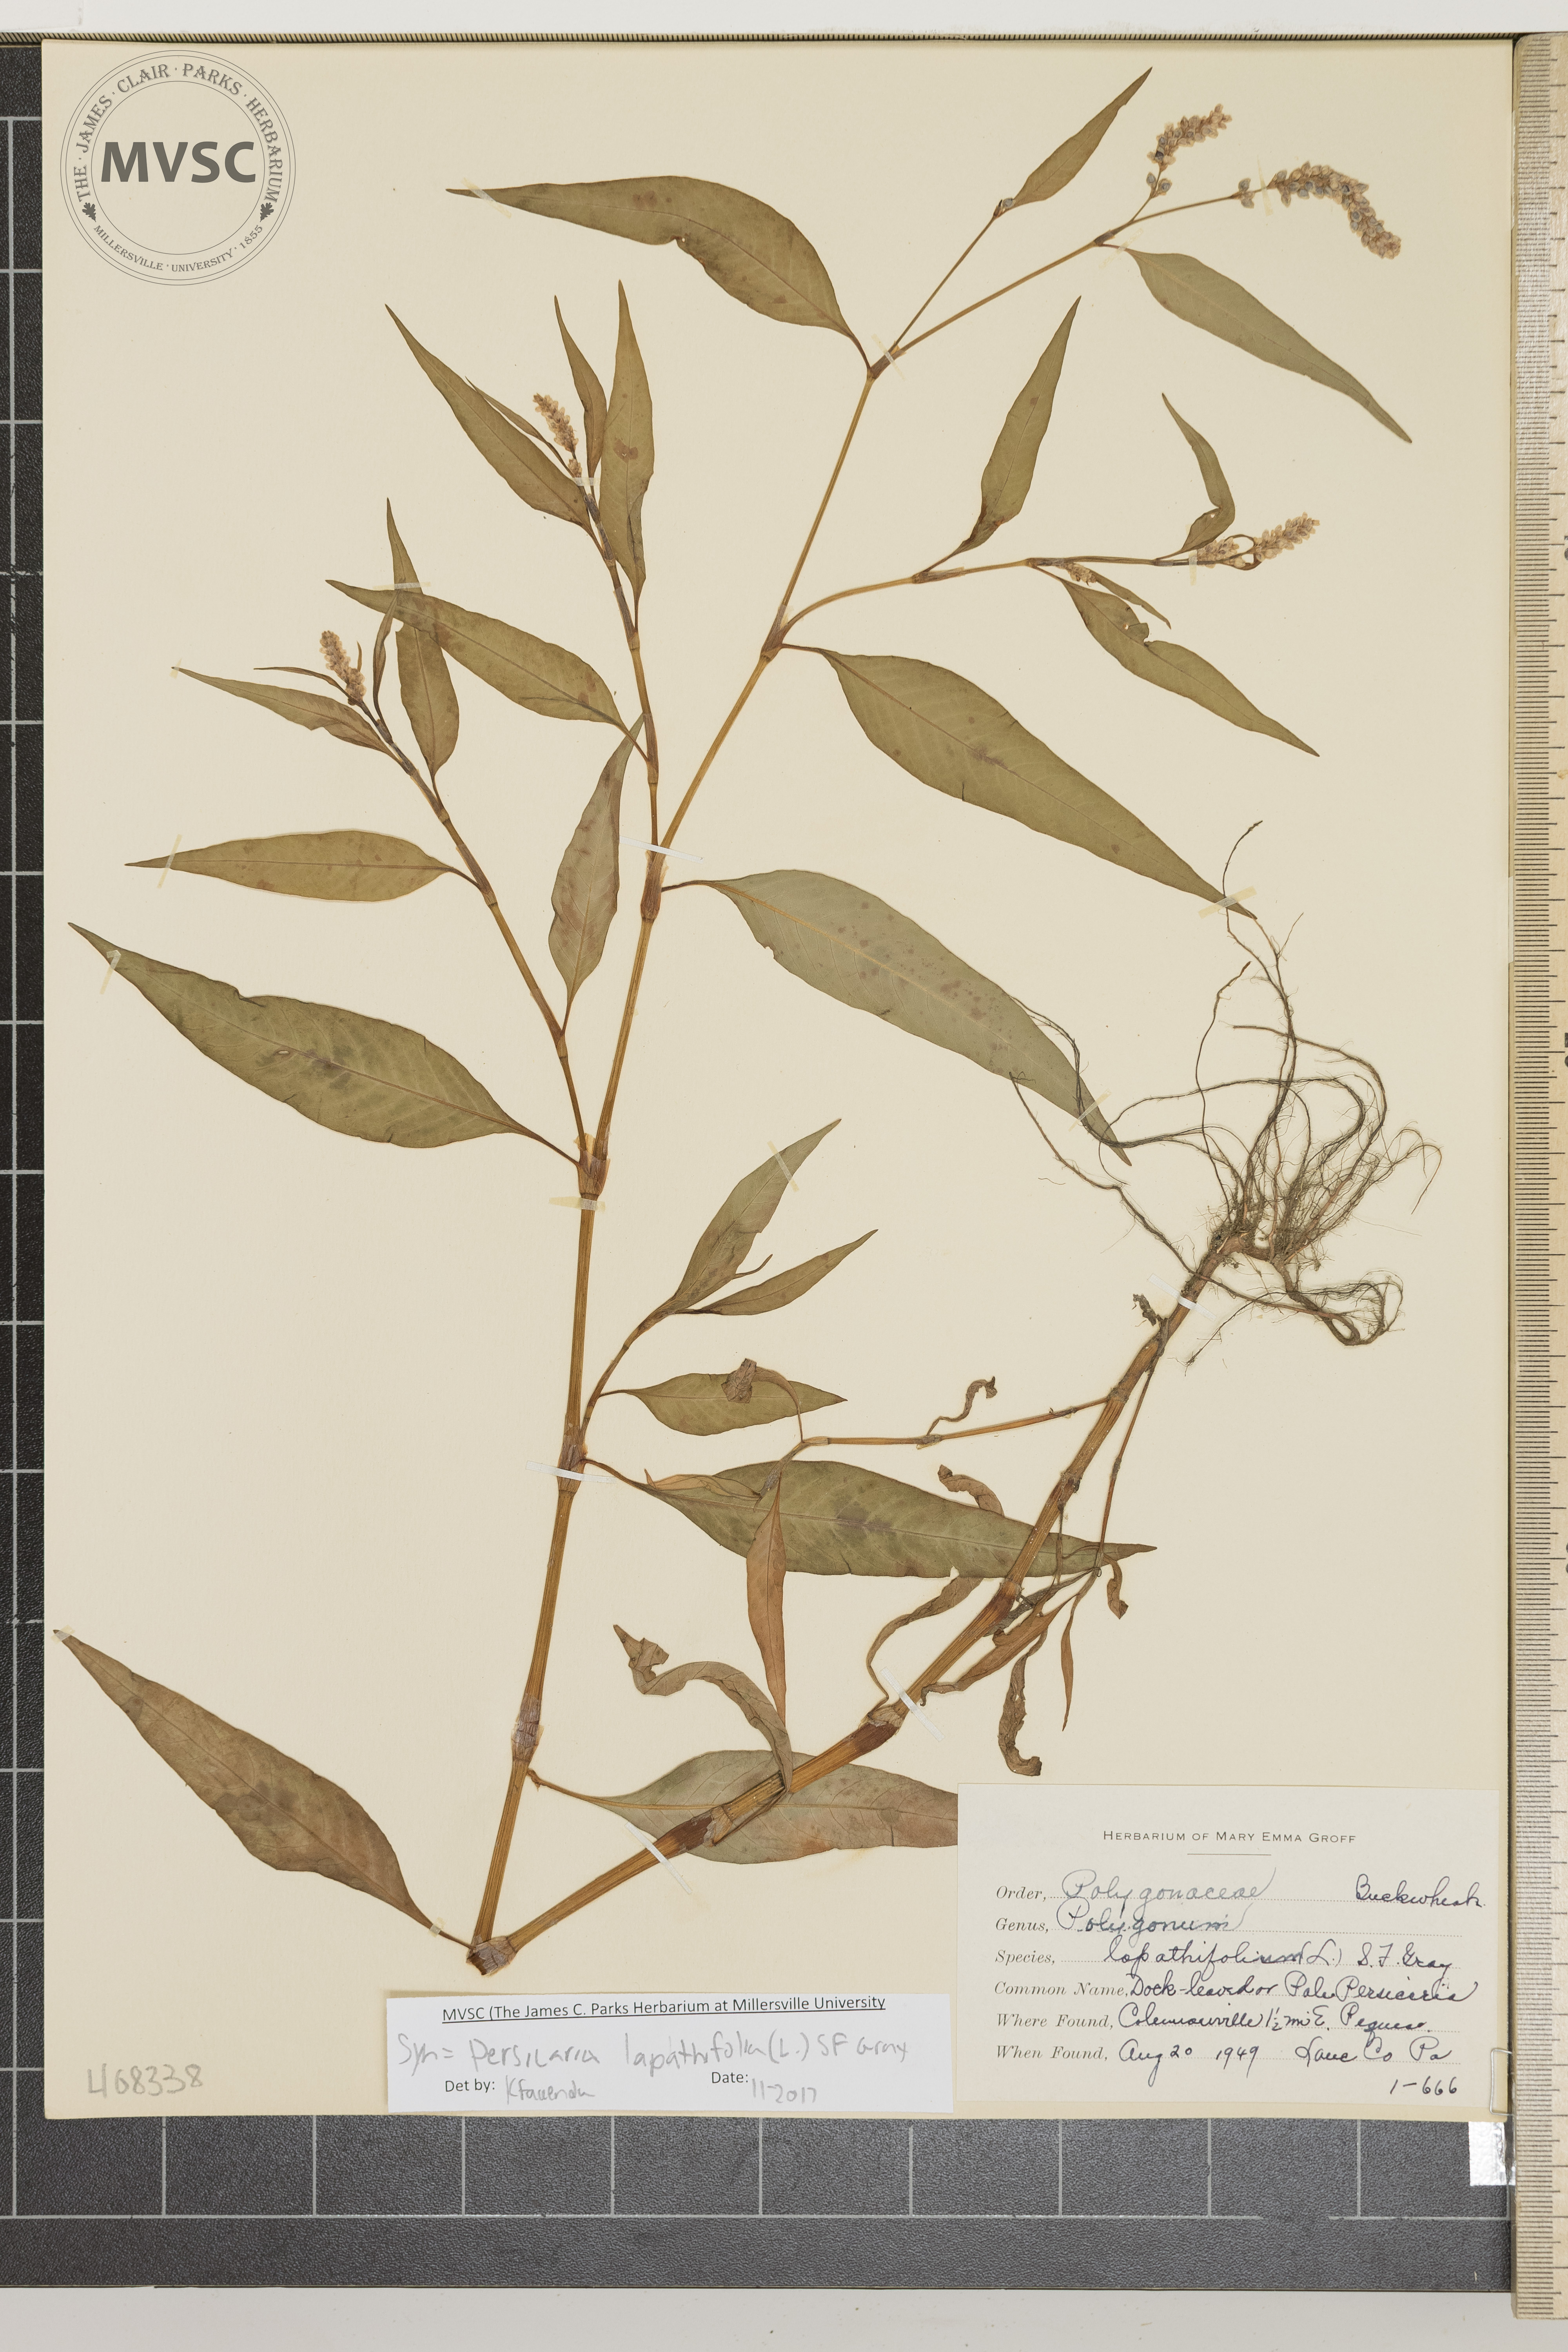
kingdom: Plantae
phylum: Tracheophyta
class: Magnoliopsida
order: Caryophyllales
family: Polygonaceae
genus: Persicaria
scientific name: Persicaria lapathifolia
